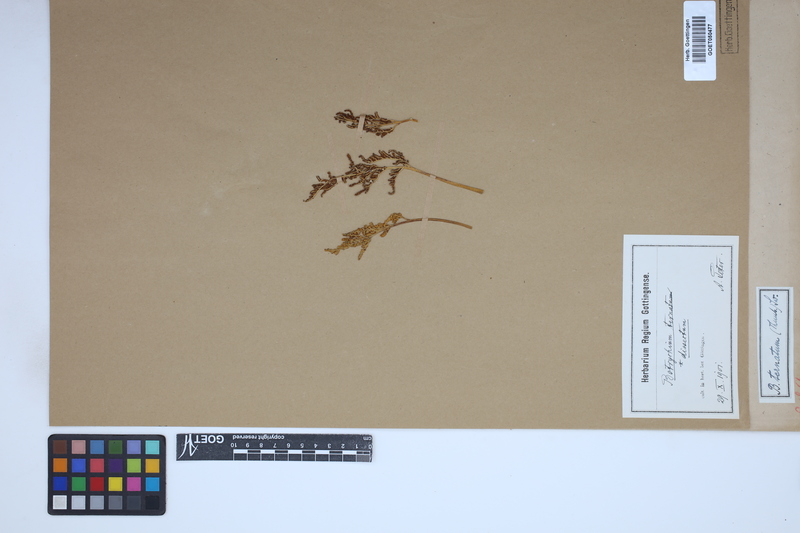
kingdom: Plantae
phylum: Tracheophyta
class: Polypodiopsida
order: Ophioglossales
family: Ophioglossaceae
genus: Sceptridium
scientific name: Sceptridium
